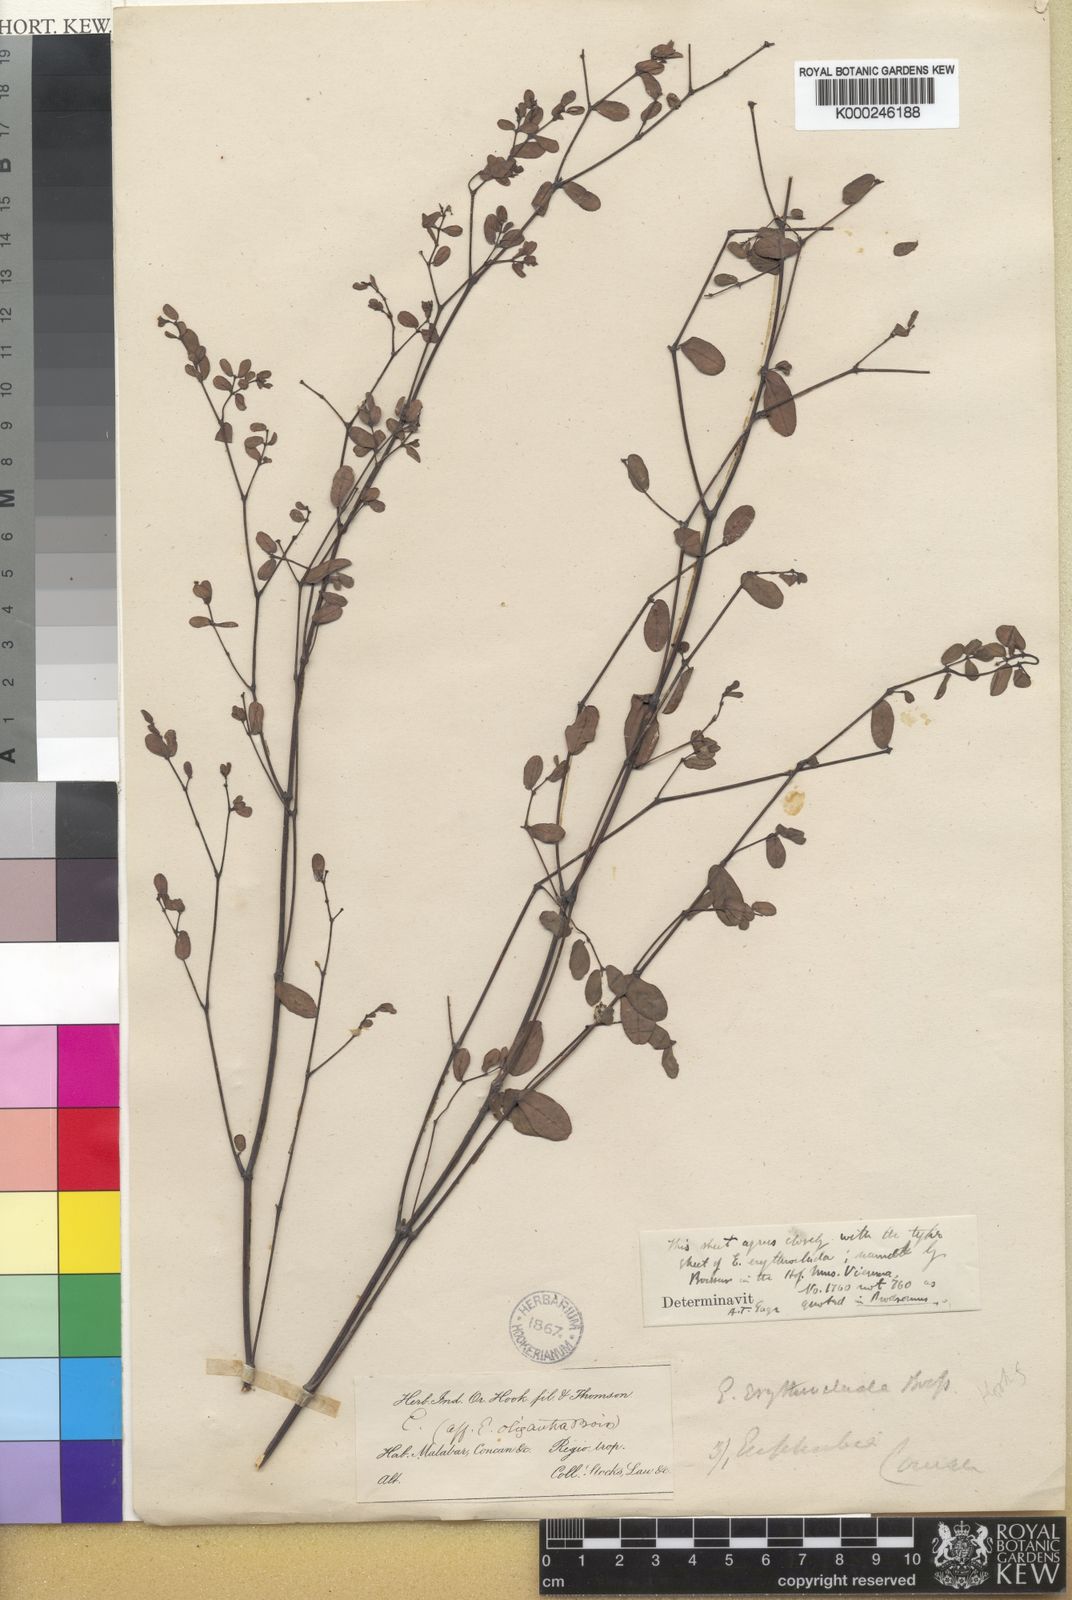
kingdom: Plantae
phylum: Tracheophyta
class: Magnoliopsida
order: Malpighiales
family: Euphorbiaceae
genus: Euphorbia
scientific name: Euphorbia erythroclada
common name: Dhudheri
